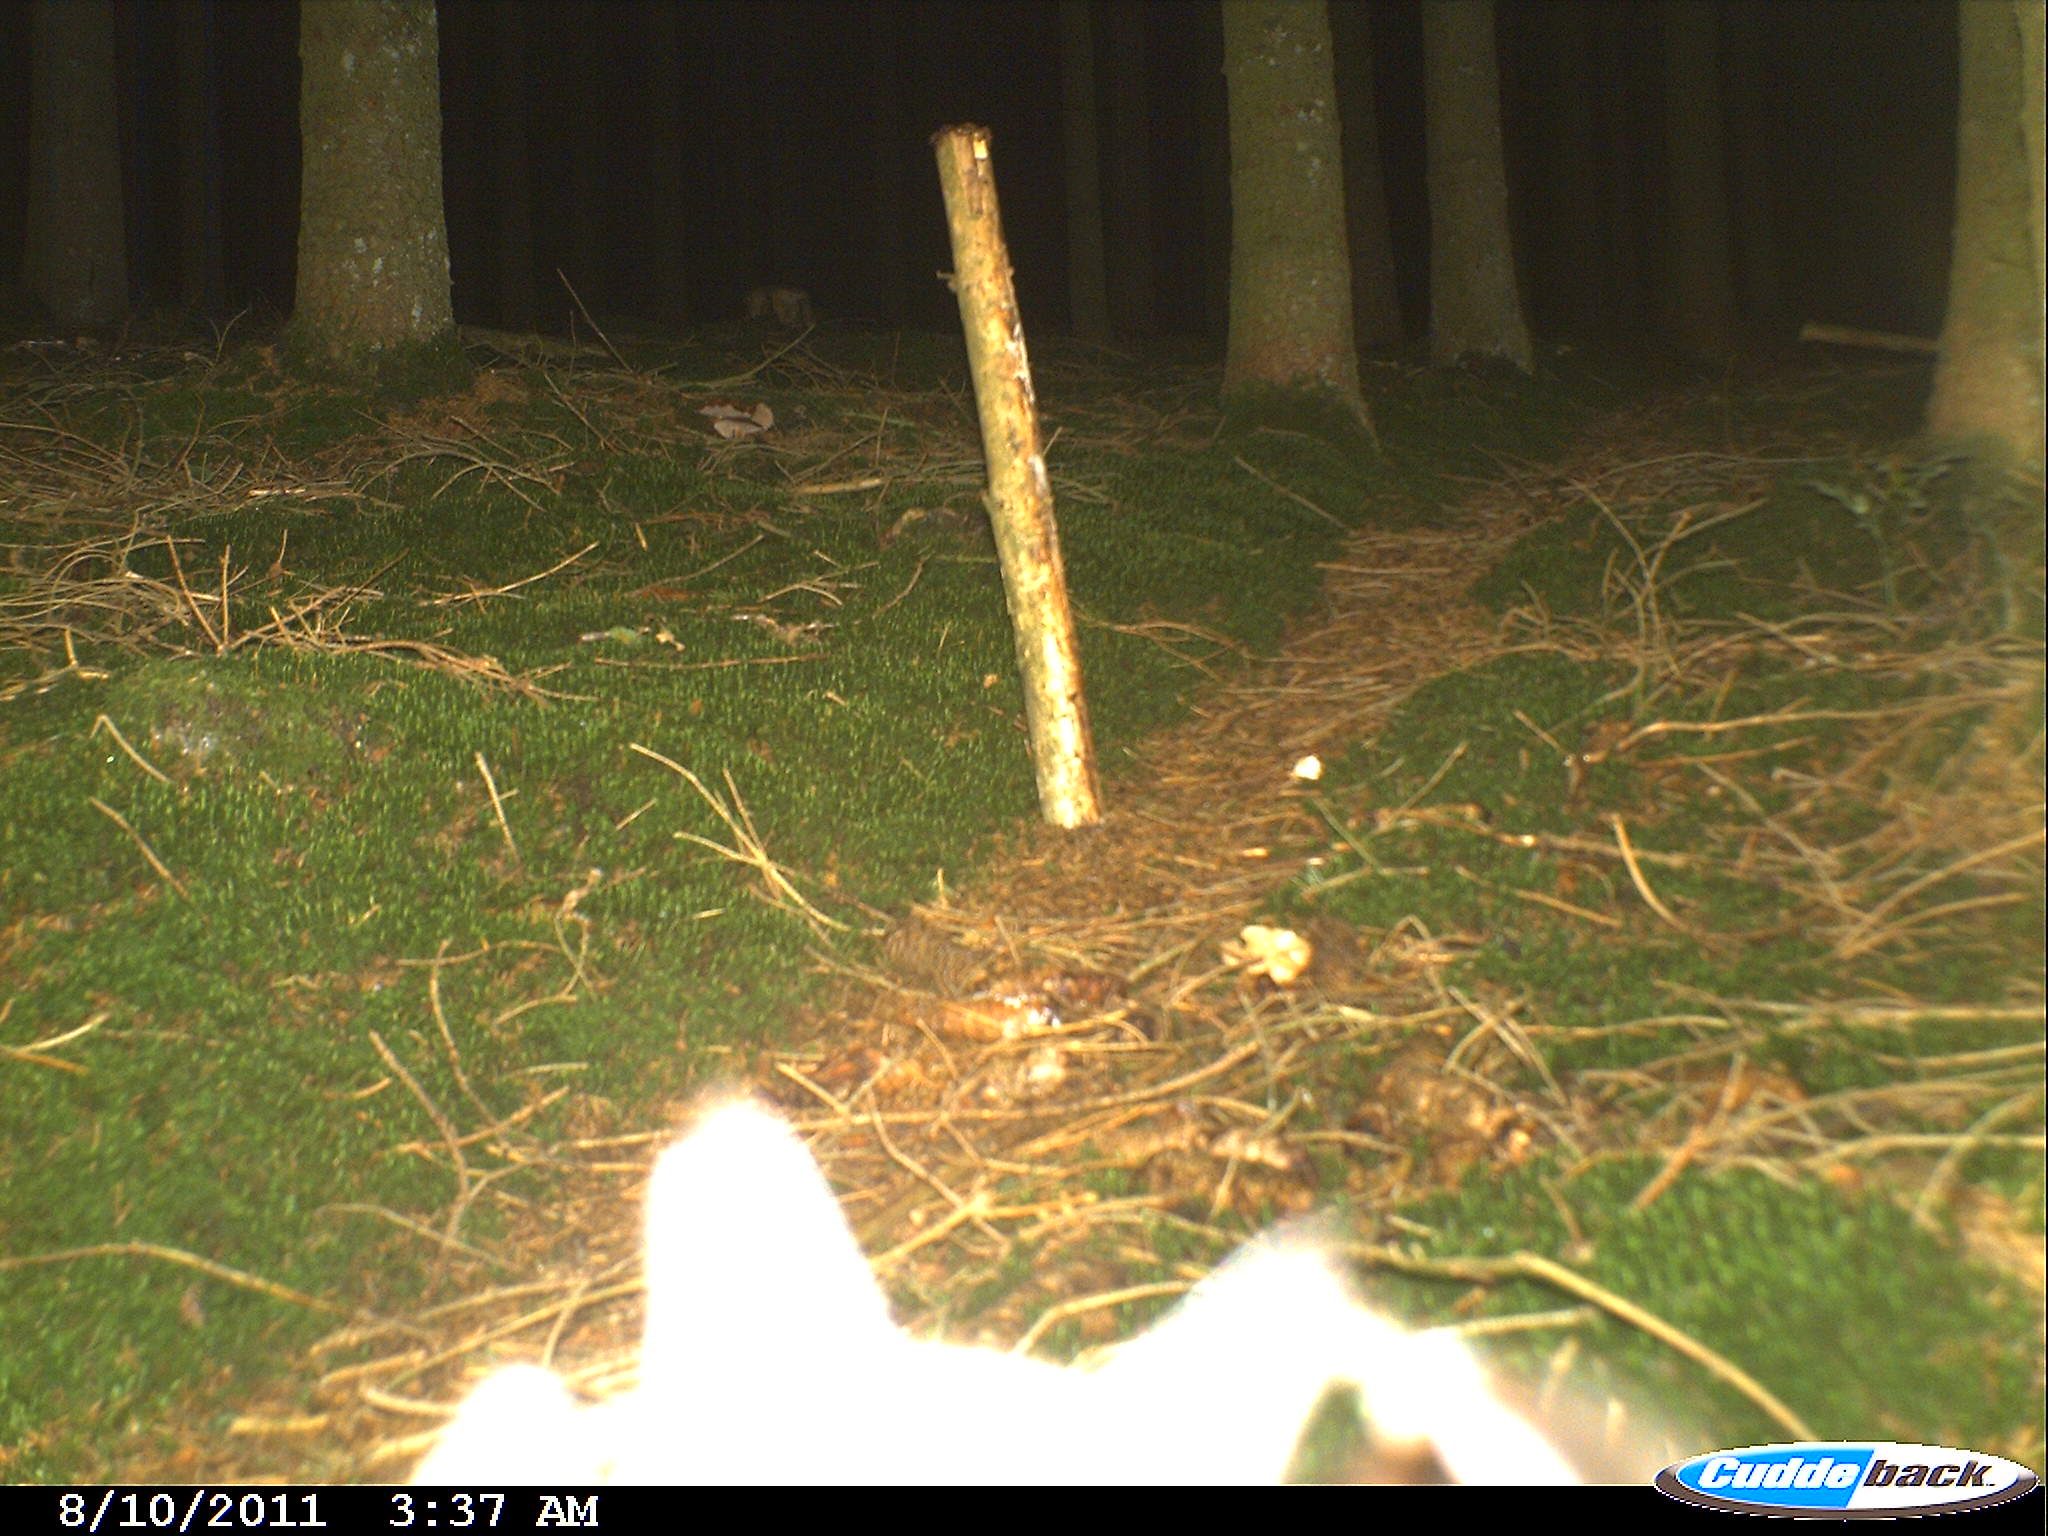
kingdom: Animalia
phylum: Chordata
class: Mammalia
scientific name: Mammalia
